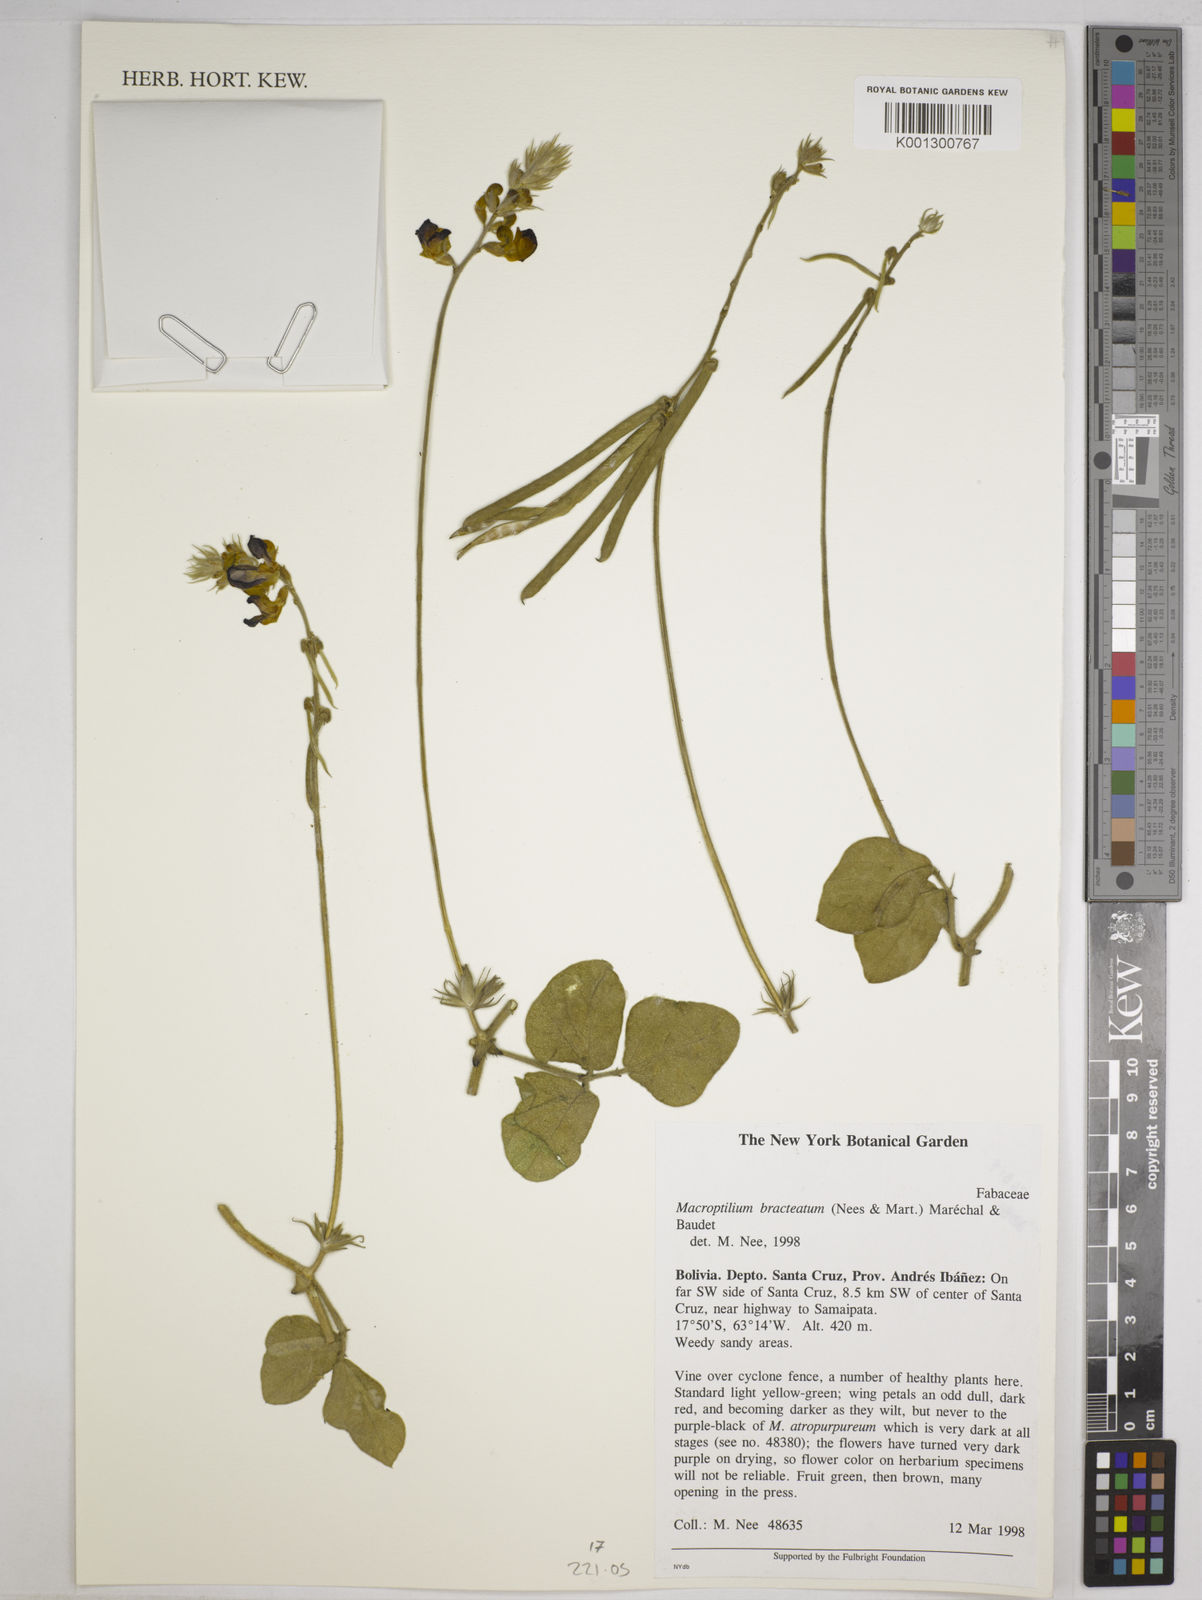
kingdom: Plantae
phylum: Tracheophyta
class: Magnoliopsida
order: Fabales
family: Fabaceae
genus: Macroptilium
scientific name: Macroptilium bracteatum
